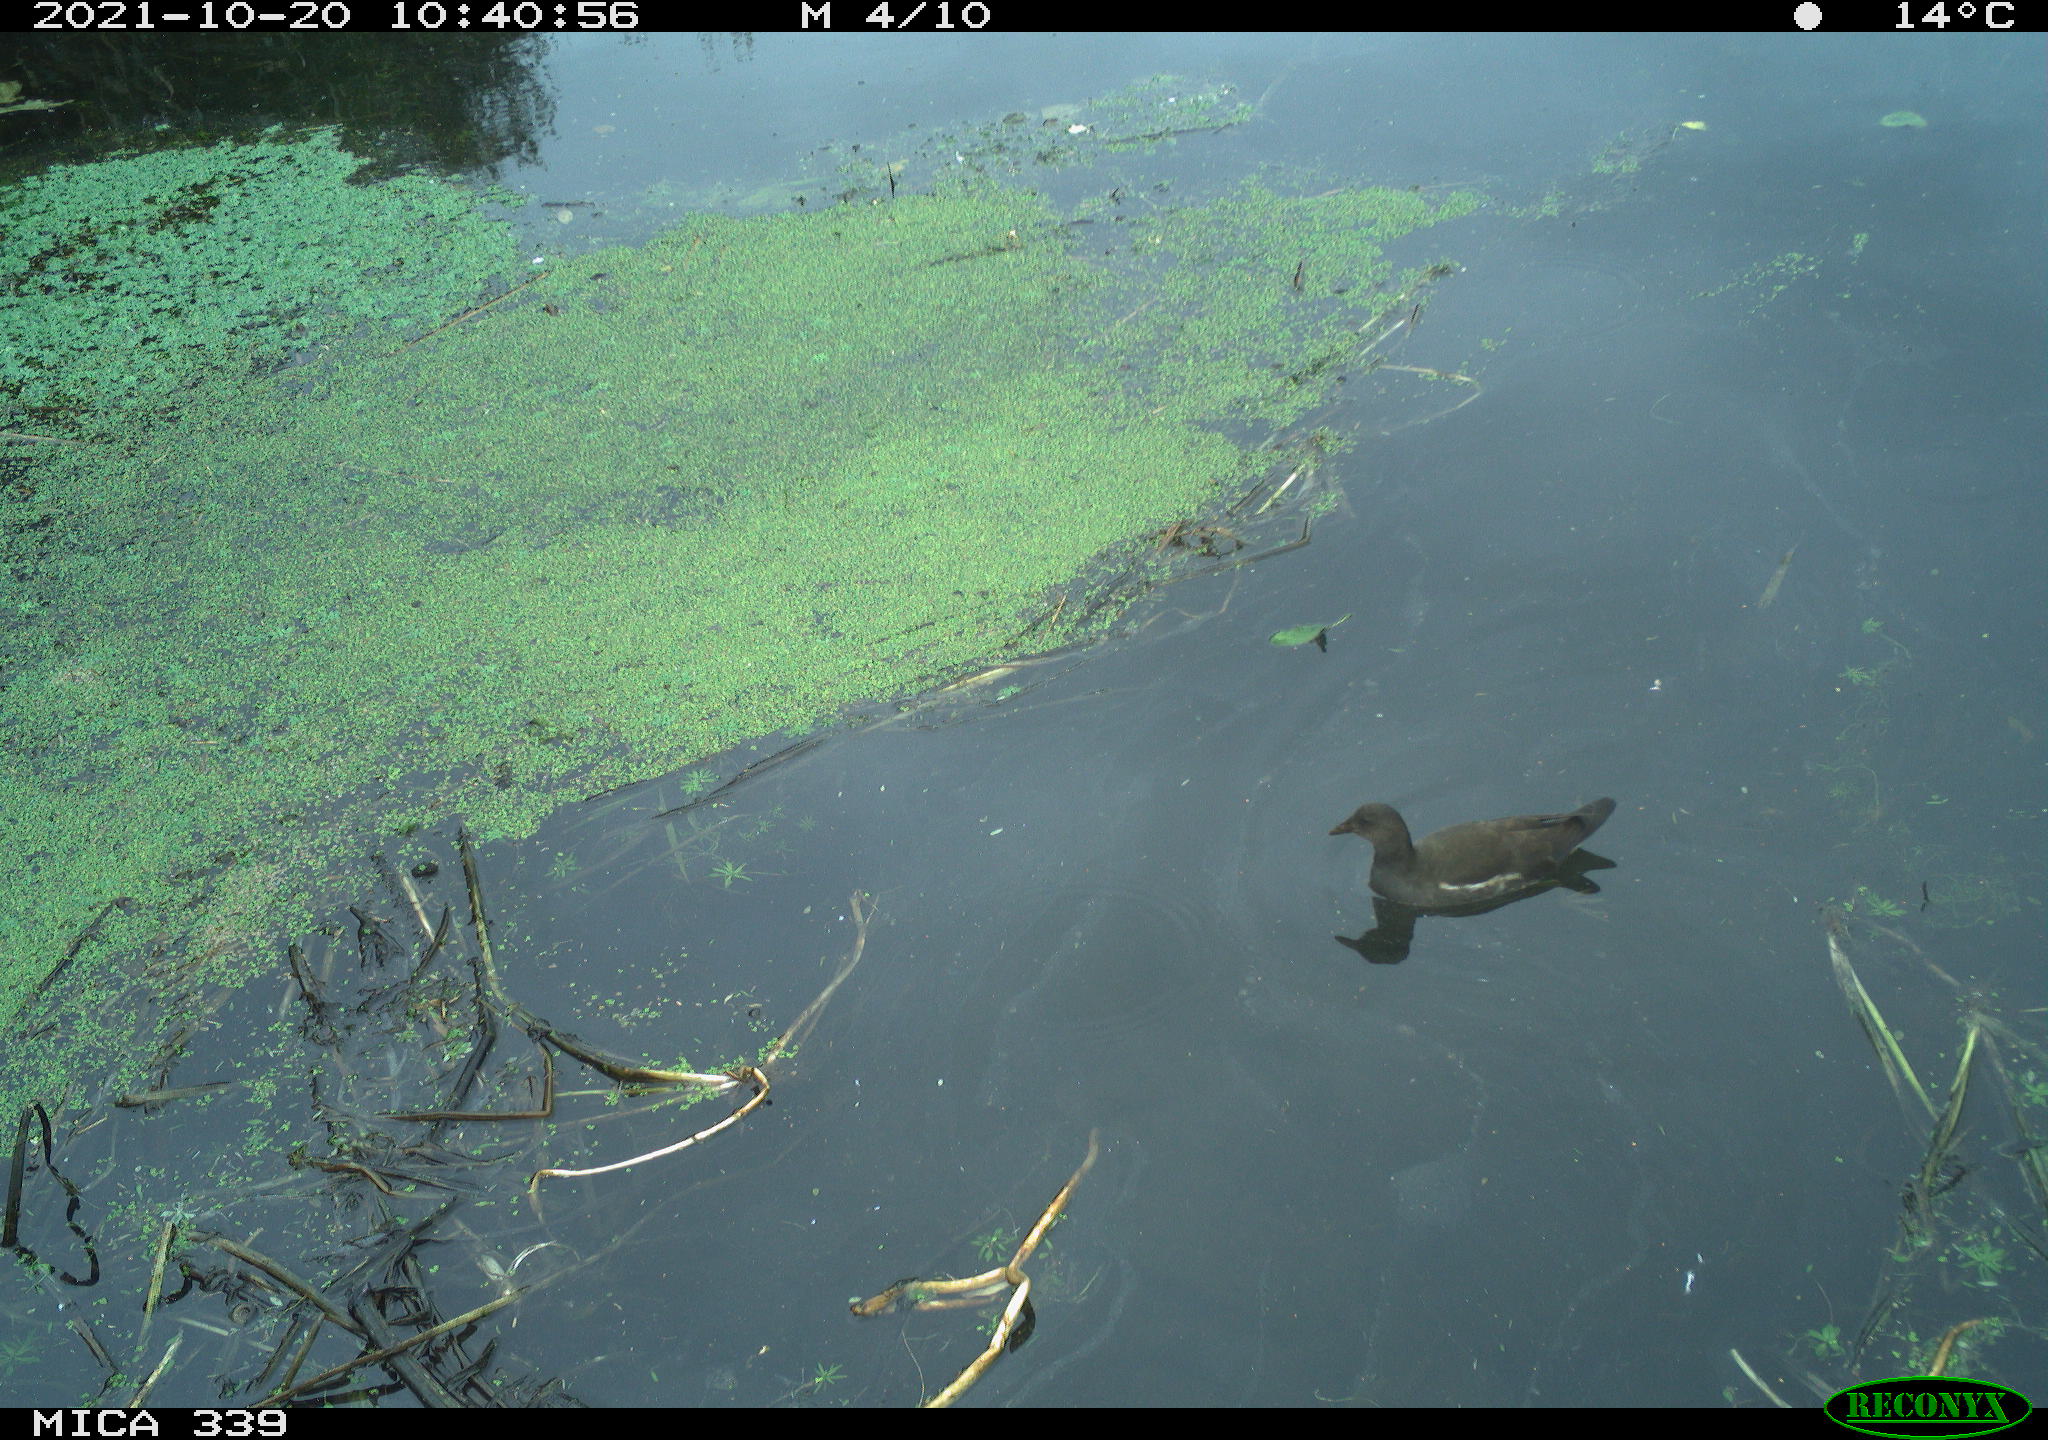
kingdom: Animalia
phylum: Chordata
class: Aves
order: Gruiformes
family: Rallidae
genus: Gallinula
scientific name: Gallinula chloropus
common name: Common moorhen
